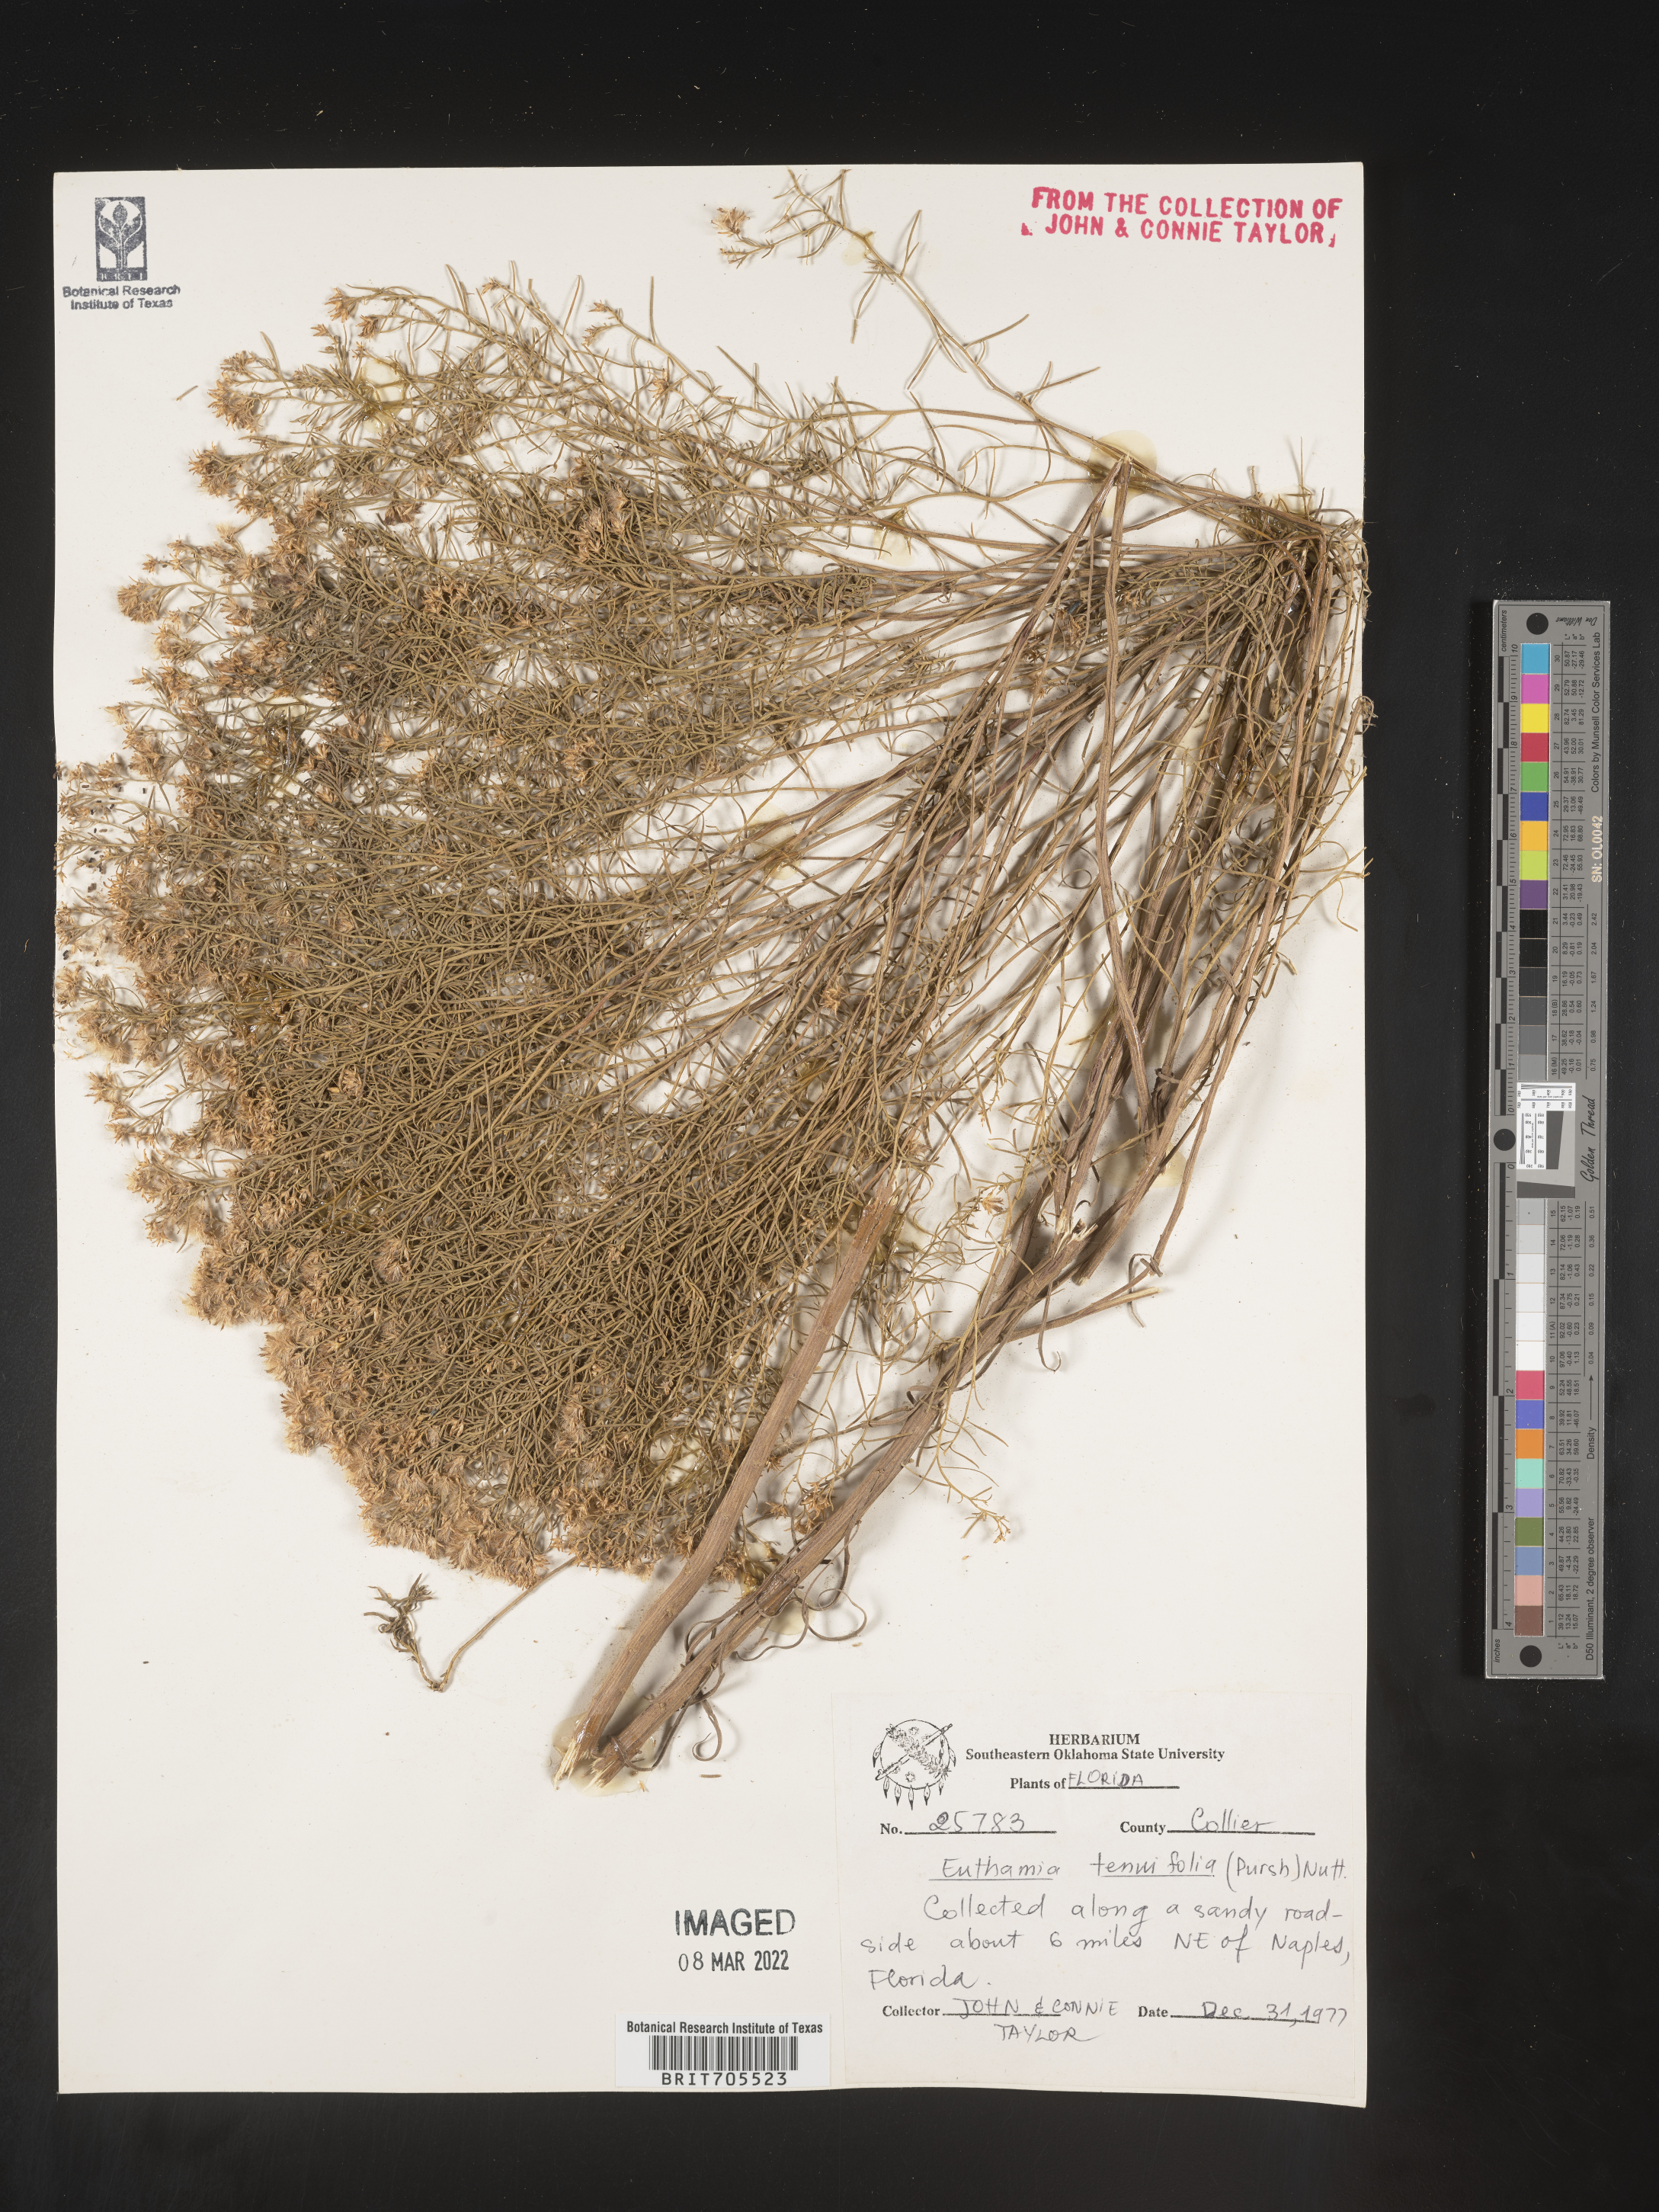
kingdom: Plantae
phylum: Tracheophyta
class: Magnoliopsida
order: Asterales
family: Asteraceae
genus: Euthamia
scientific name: Euthamia caroliniana
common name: Coastal plain goldentop
